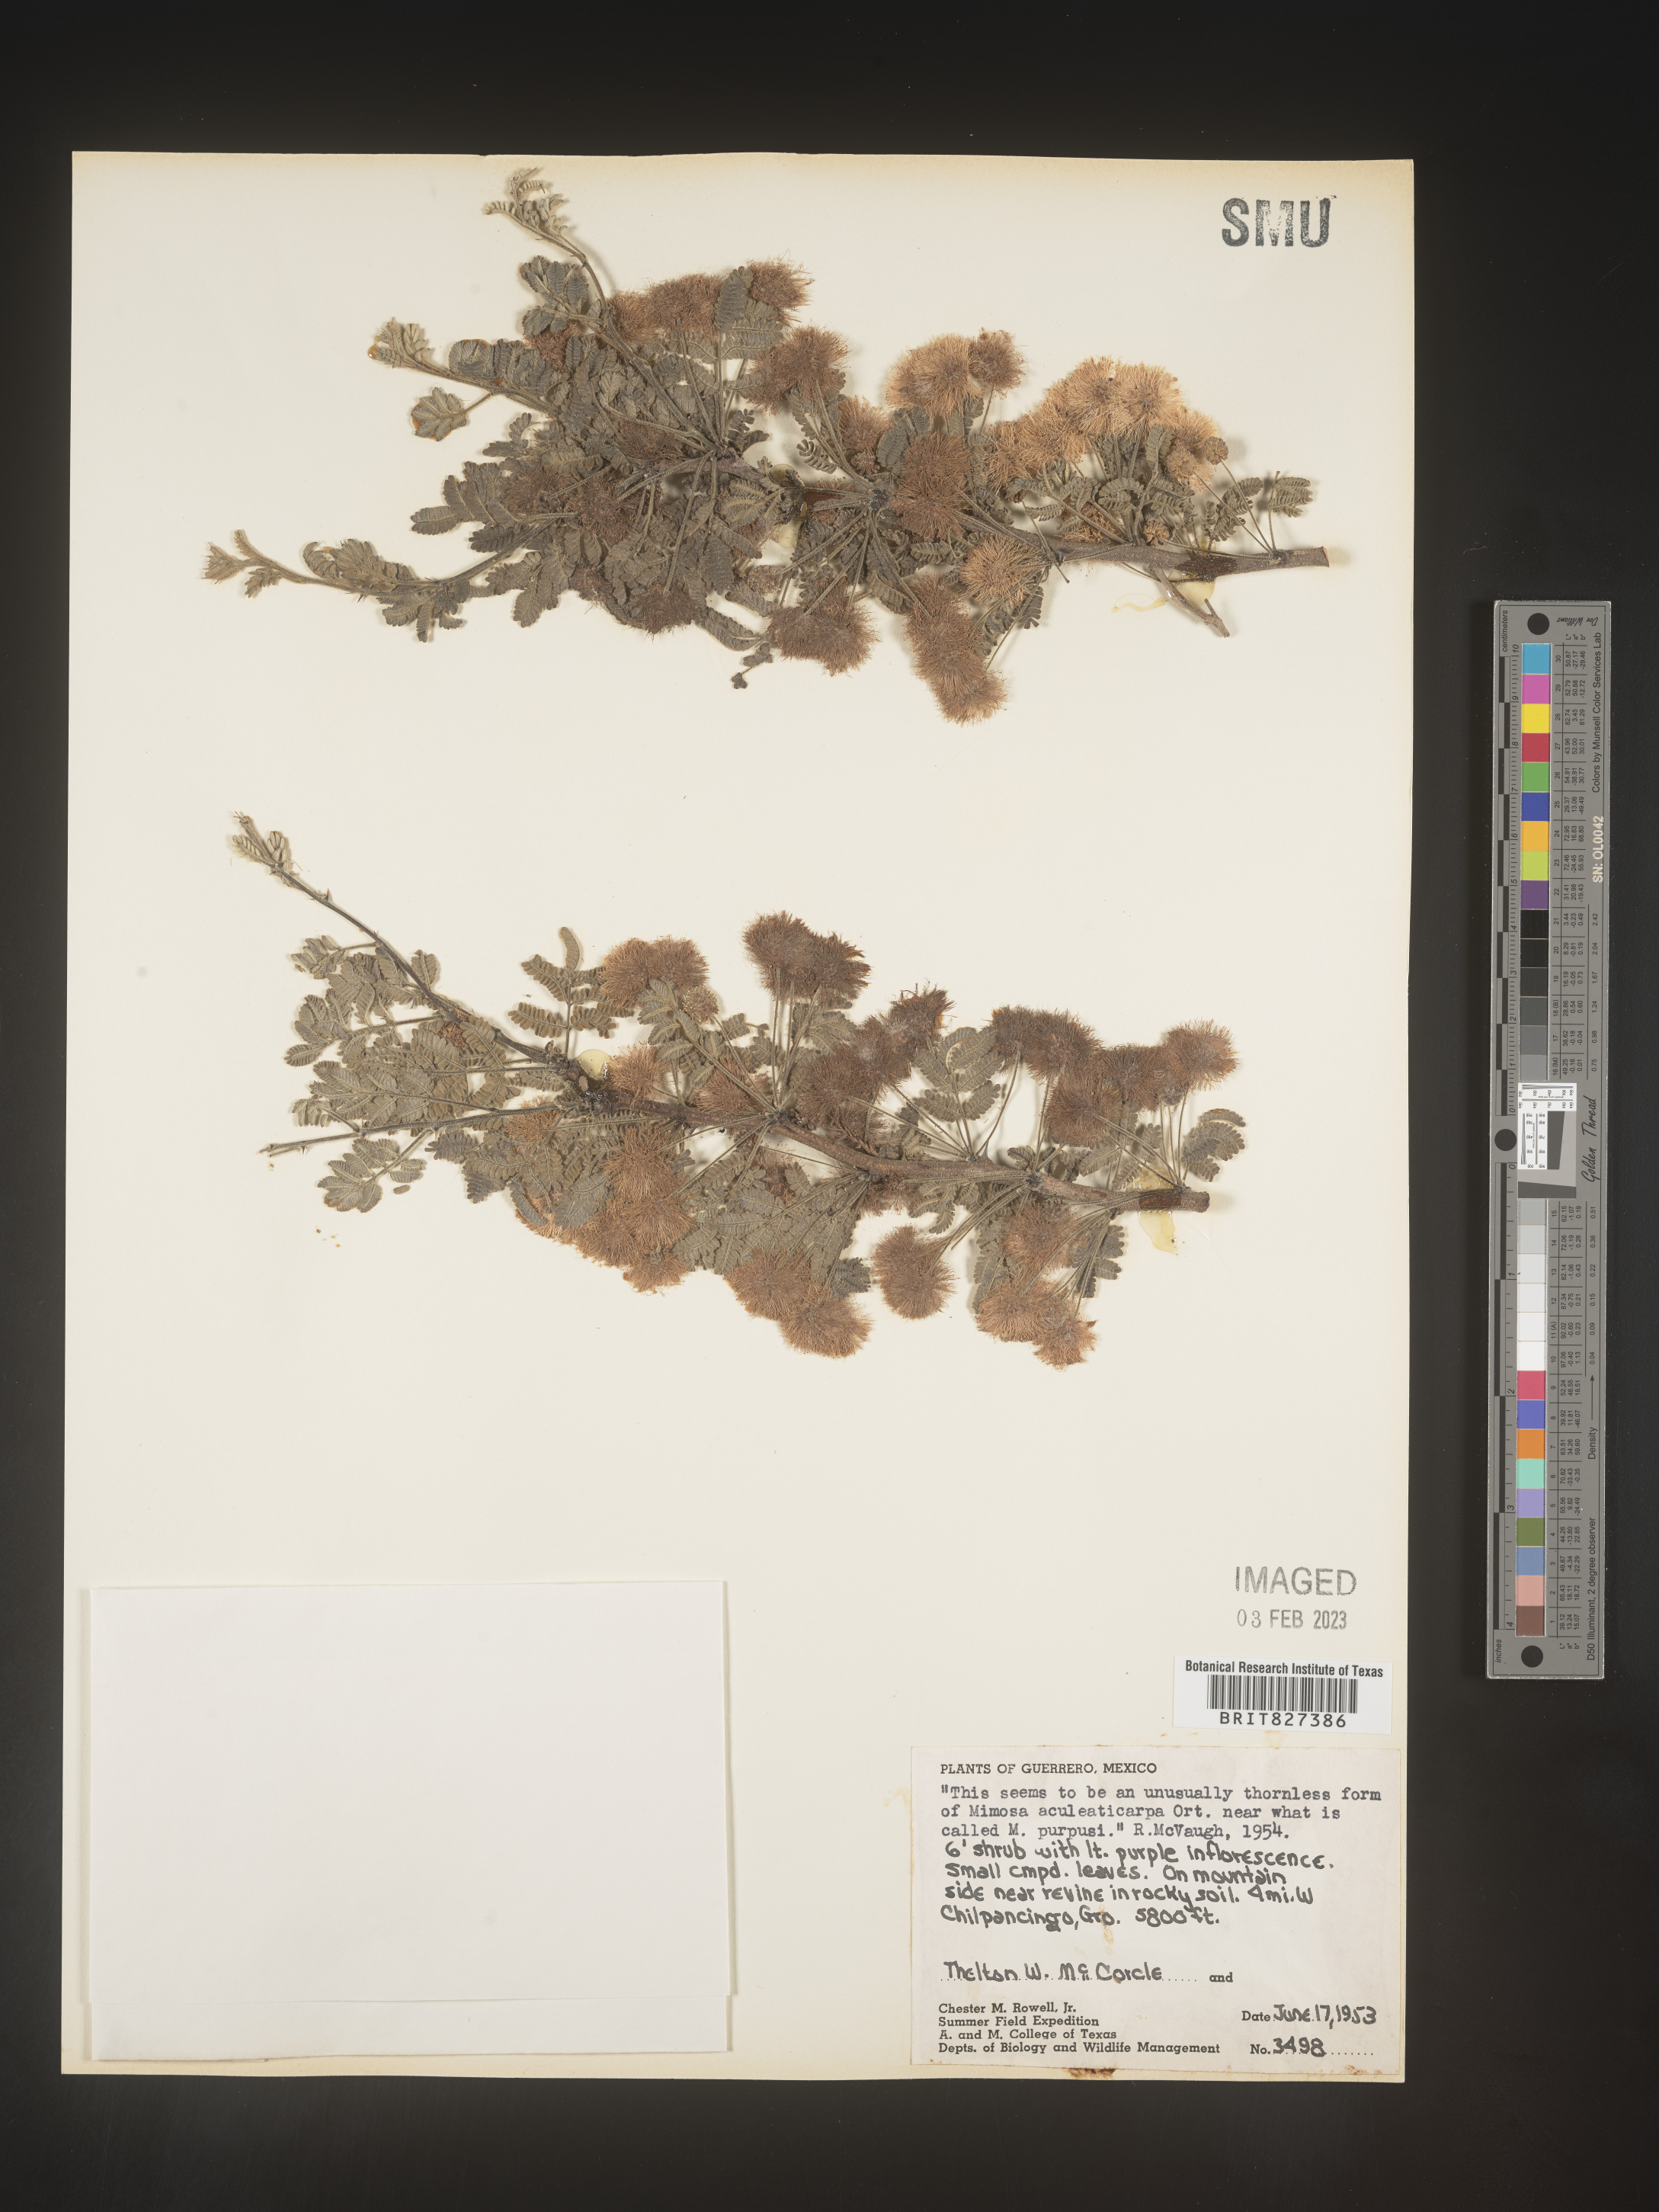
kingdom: Plantae
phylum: Tracheophyta
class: Magnoliopsida
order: Fabales
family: Fabaceae
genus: Mimosa
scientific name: Mimosa
